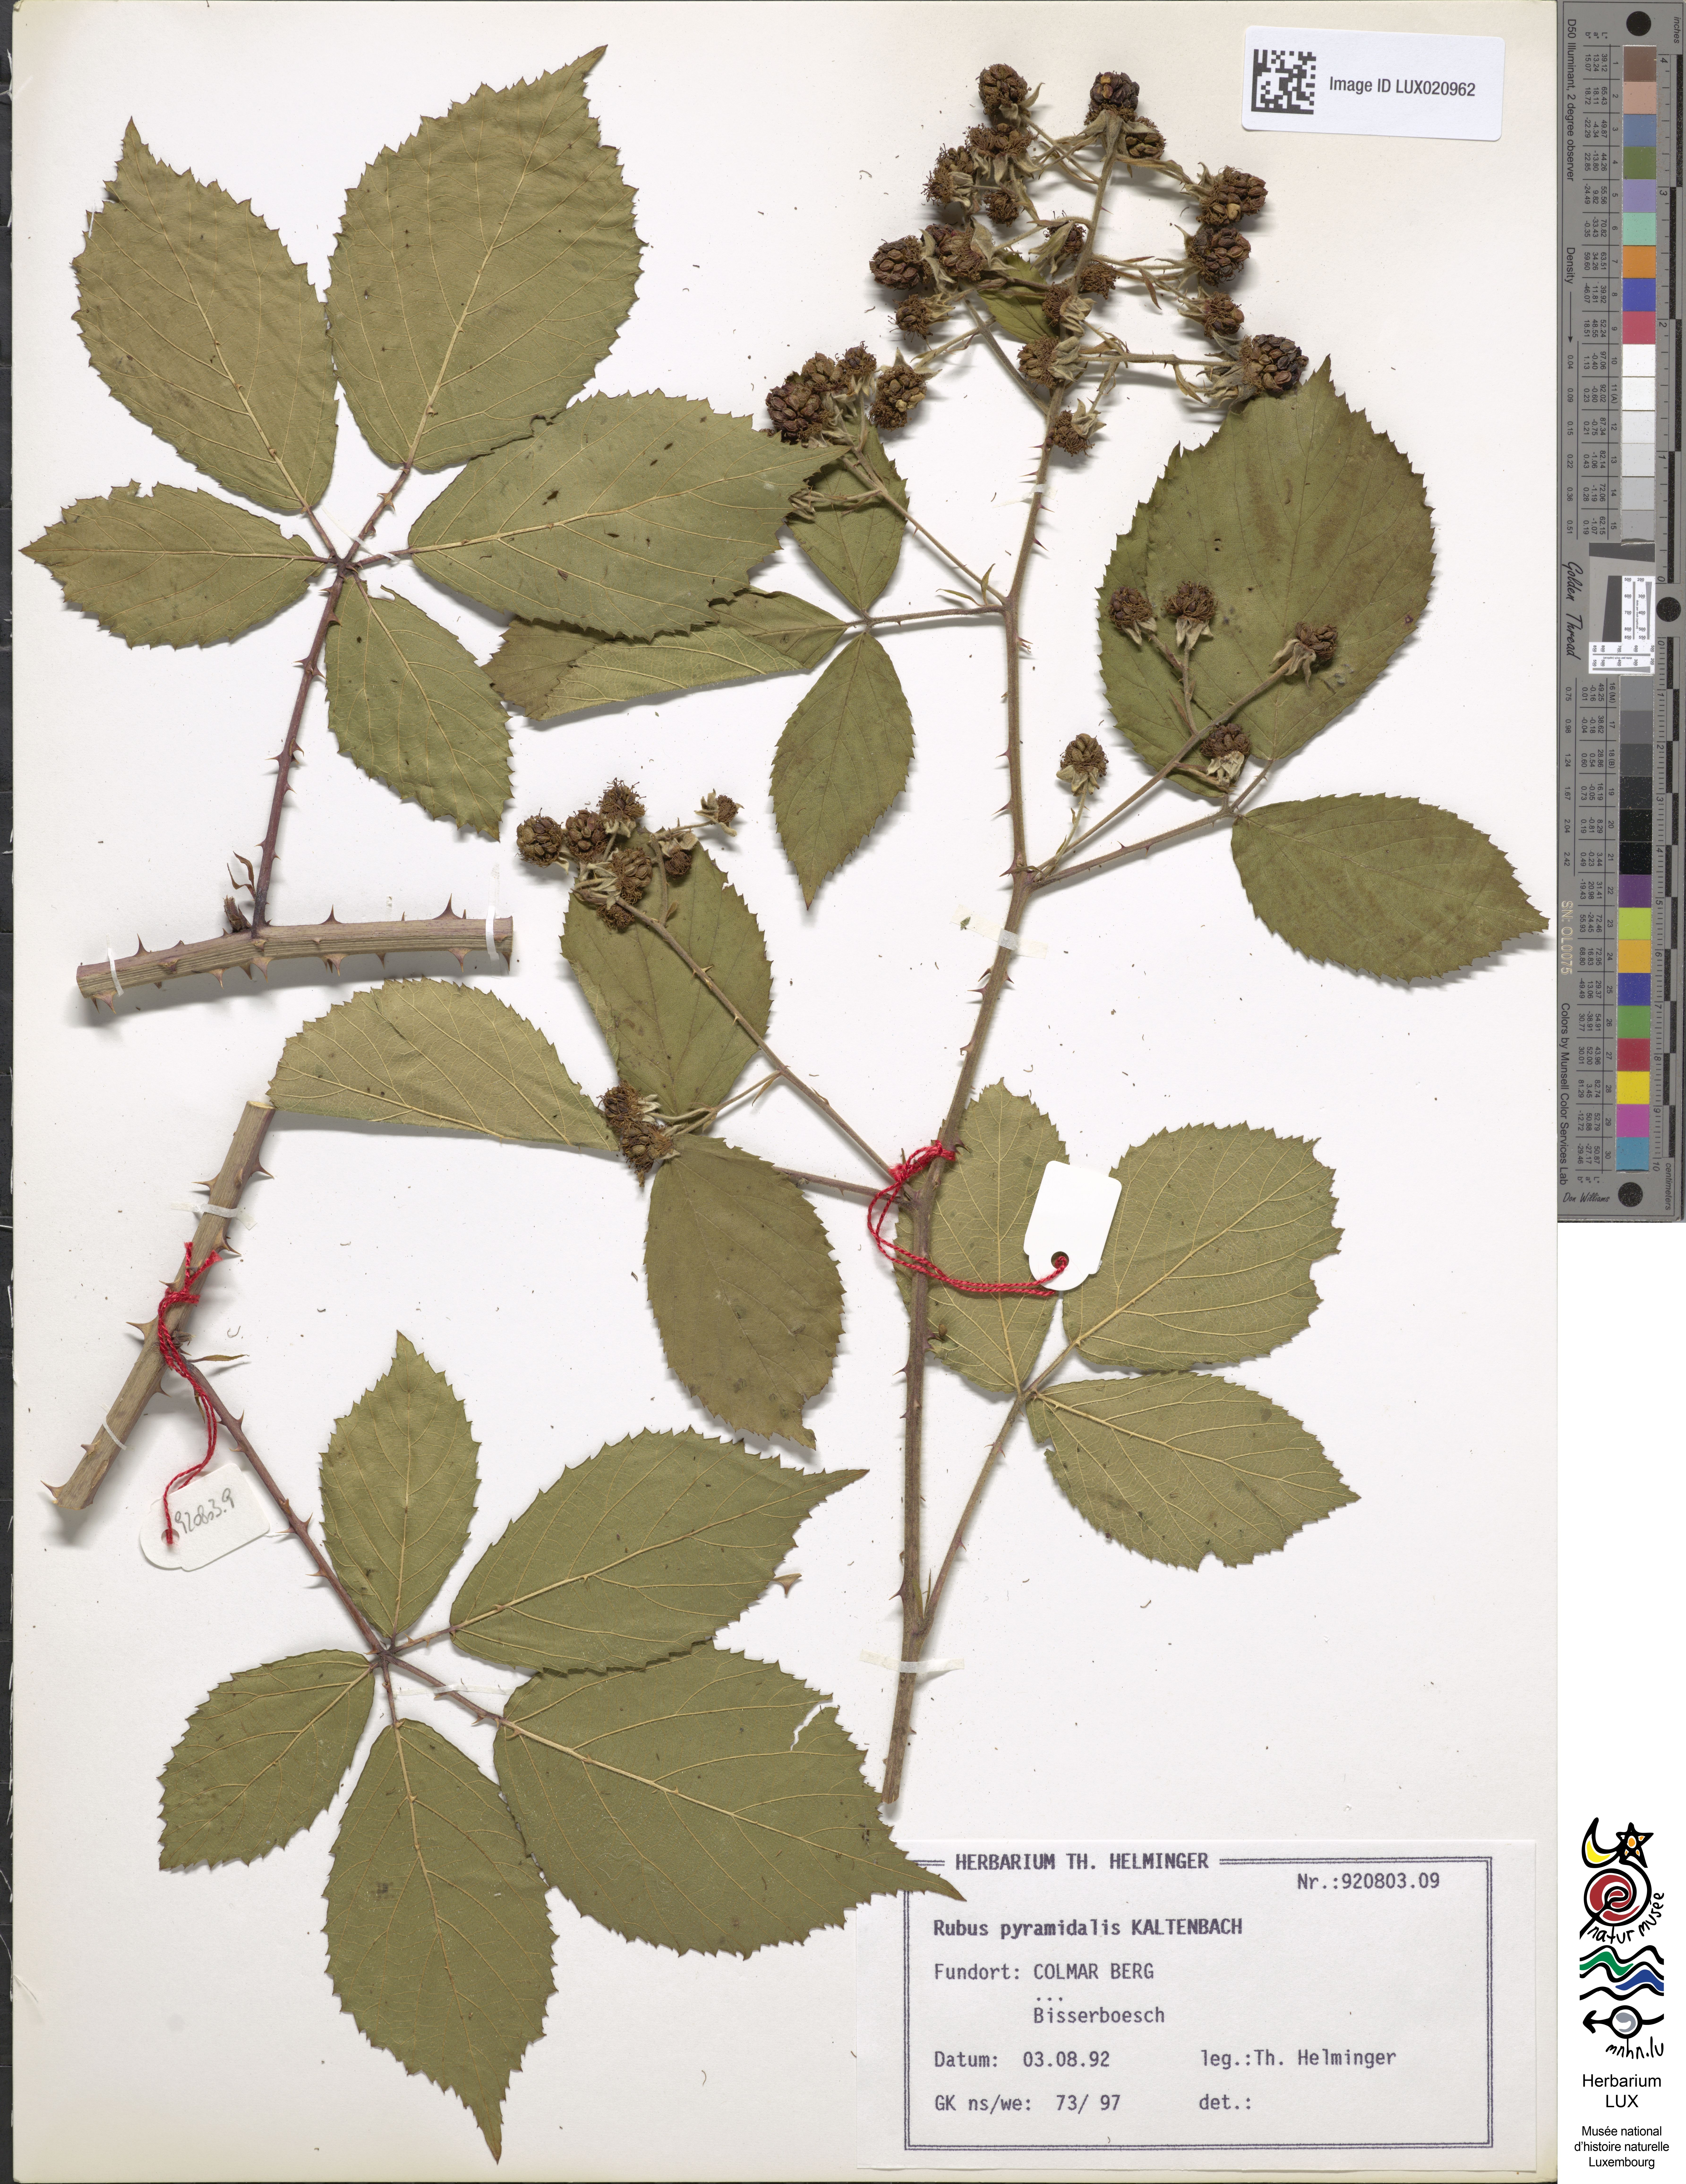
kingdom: Plantae
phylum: Tracheophyta
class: Magnoliopsida
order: Rosales
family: Rosaceae
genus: Rubus
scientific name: Rubus umbrosus
